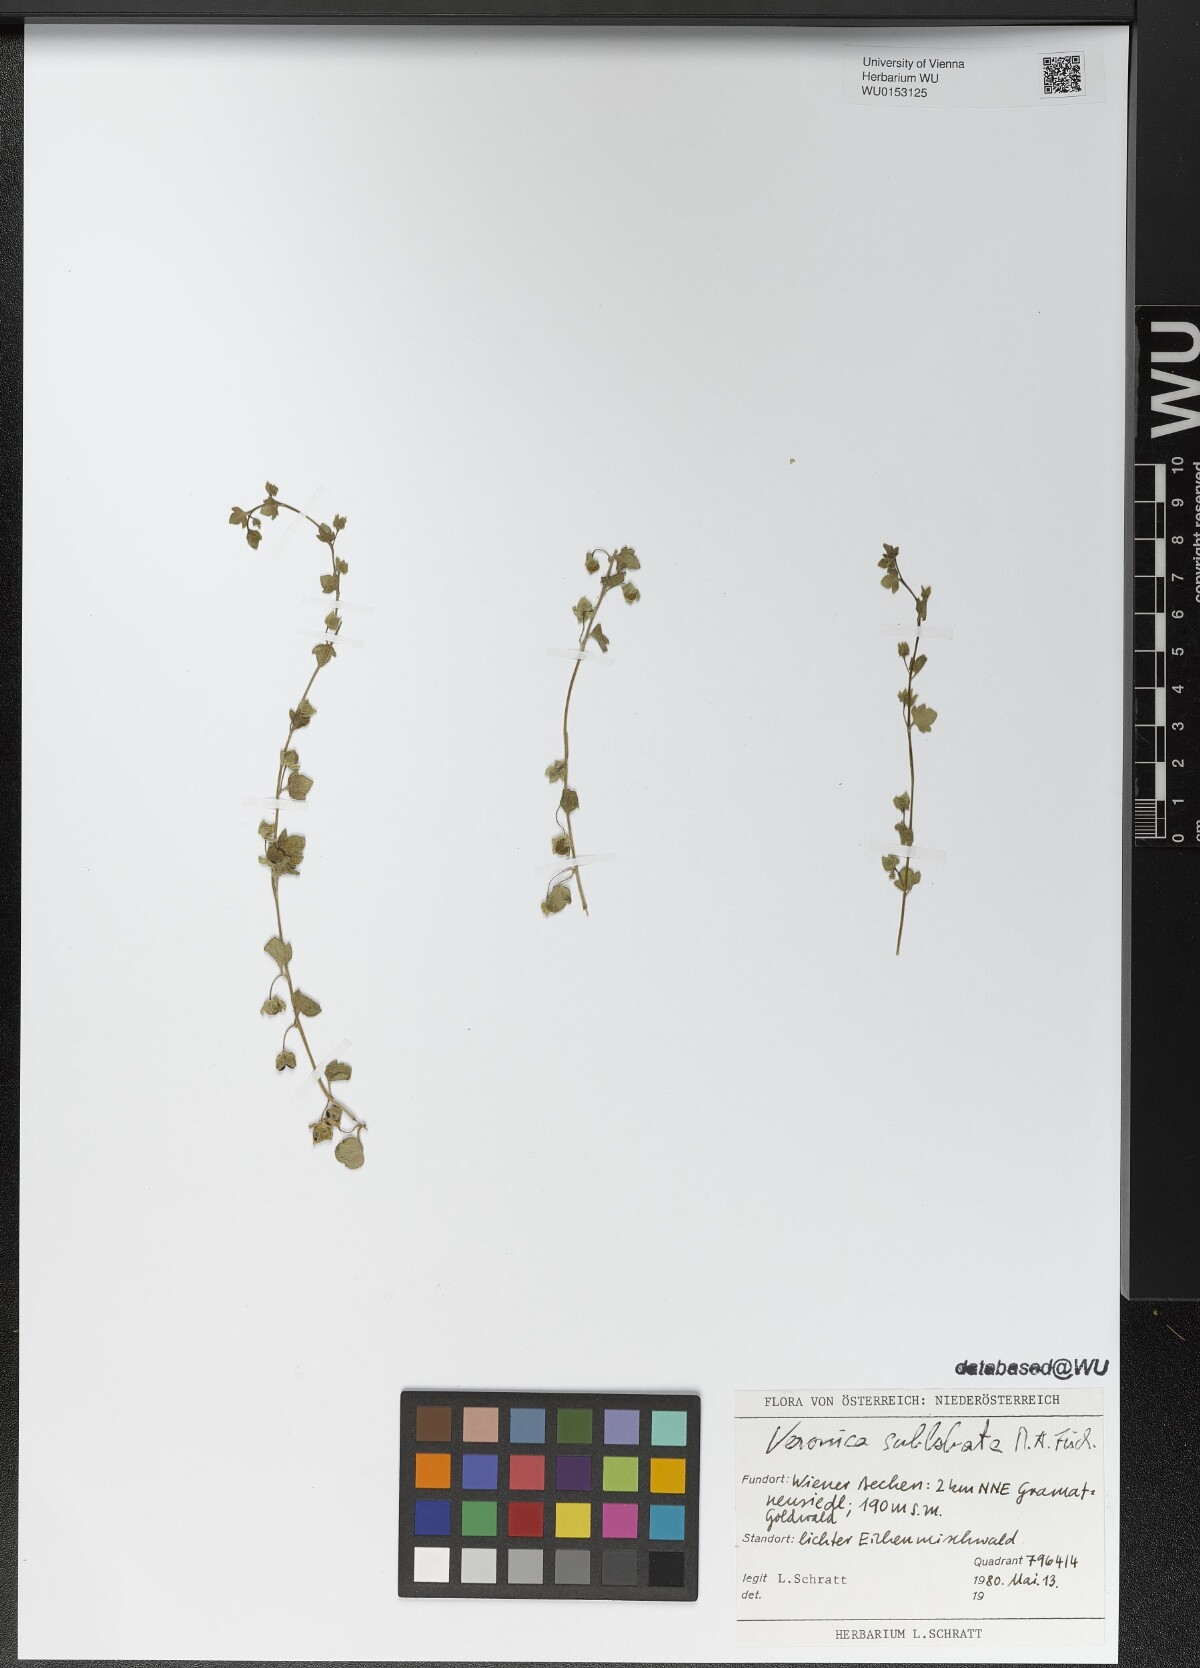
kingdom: Plantae
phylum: Tracheophyta
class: Magnoliopsida
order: Lamiales
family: Plantaginaceae
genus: Veronica
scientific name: Veronica sublobata
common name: False ivy-leaved speedwell
